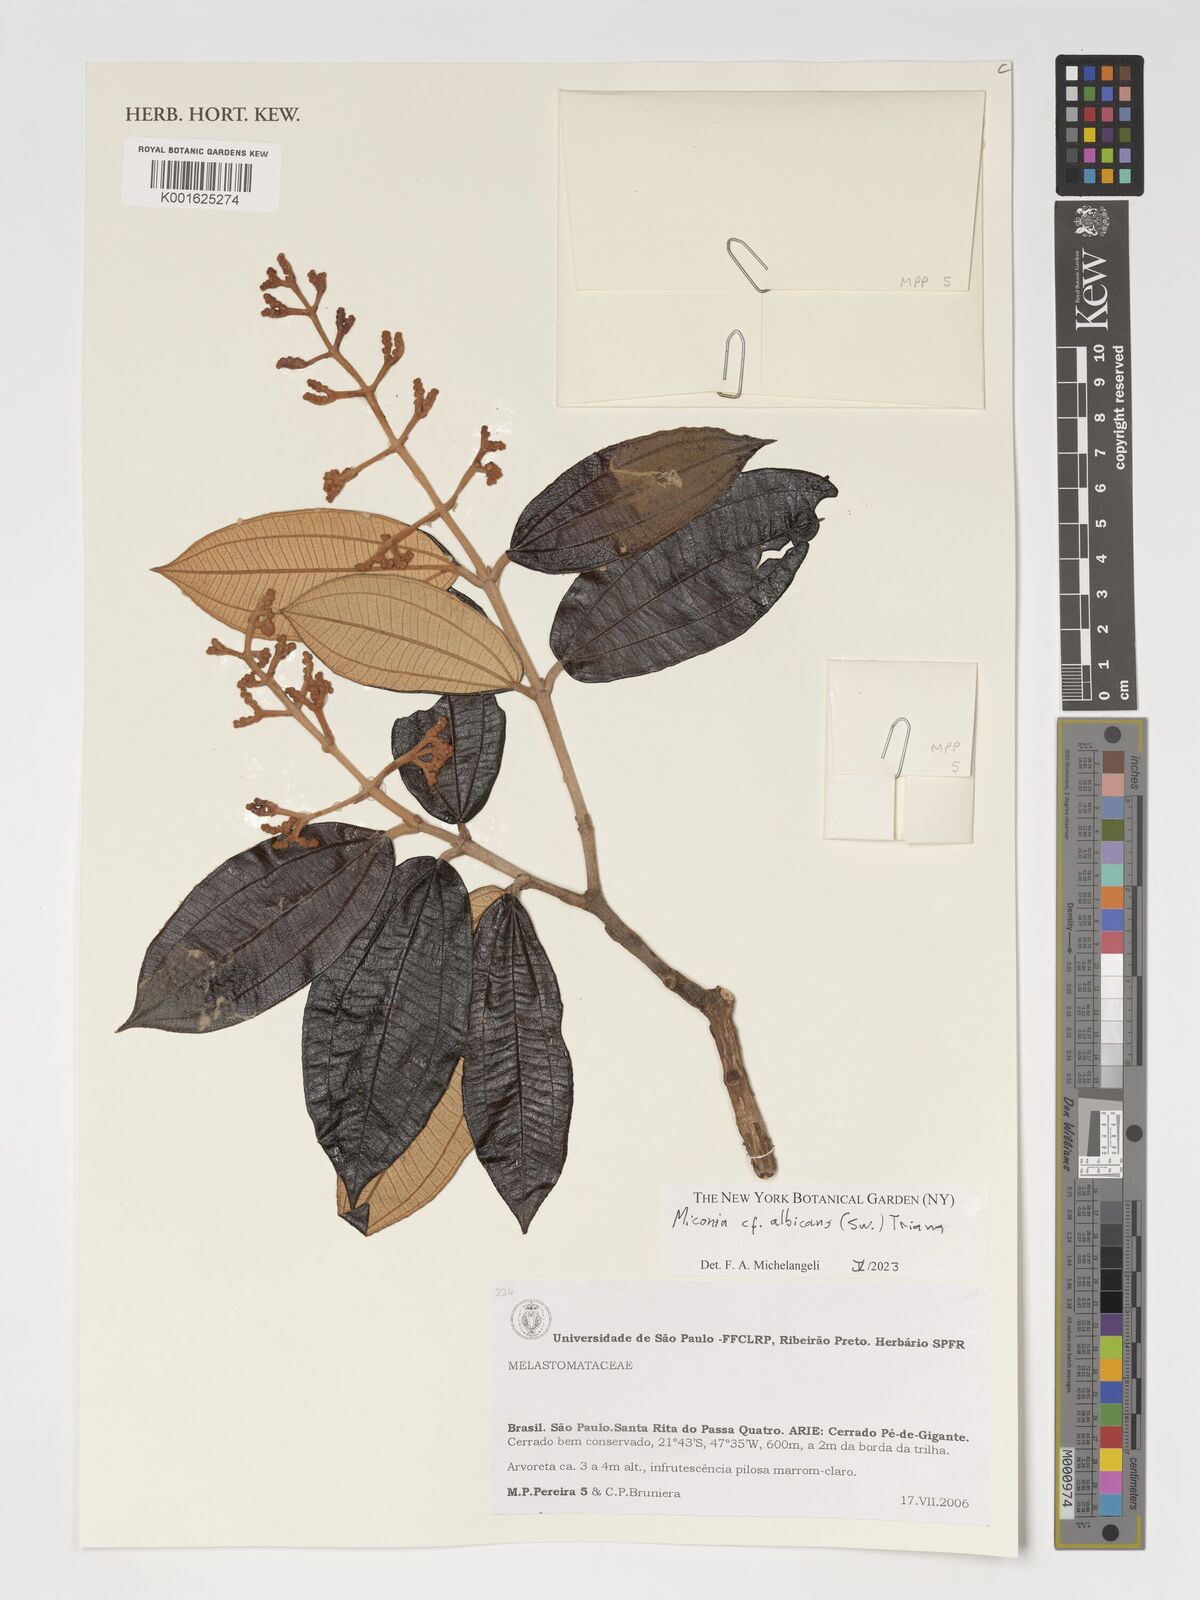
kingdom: Plantae
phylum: Tracheophyta
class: Magnoliopsida
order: Myrtales
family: Melastomataceae
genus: Miconia
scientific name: Miconia albicans
